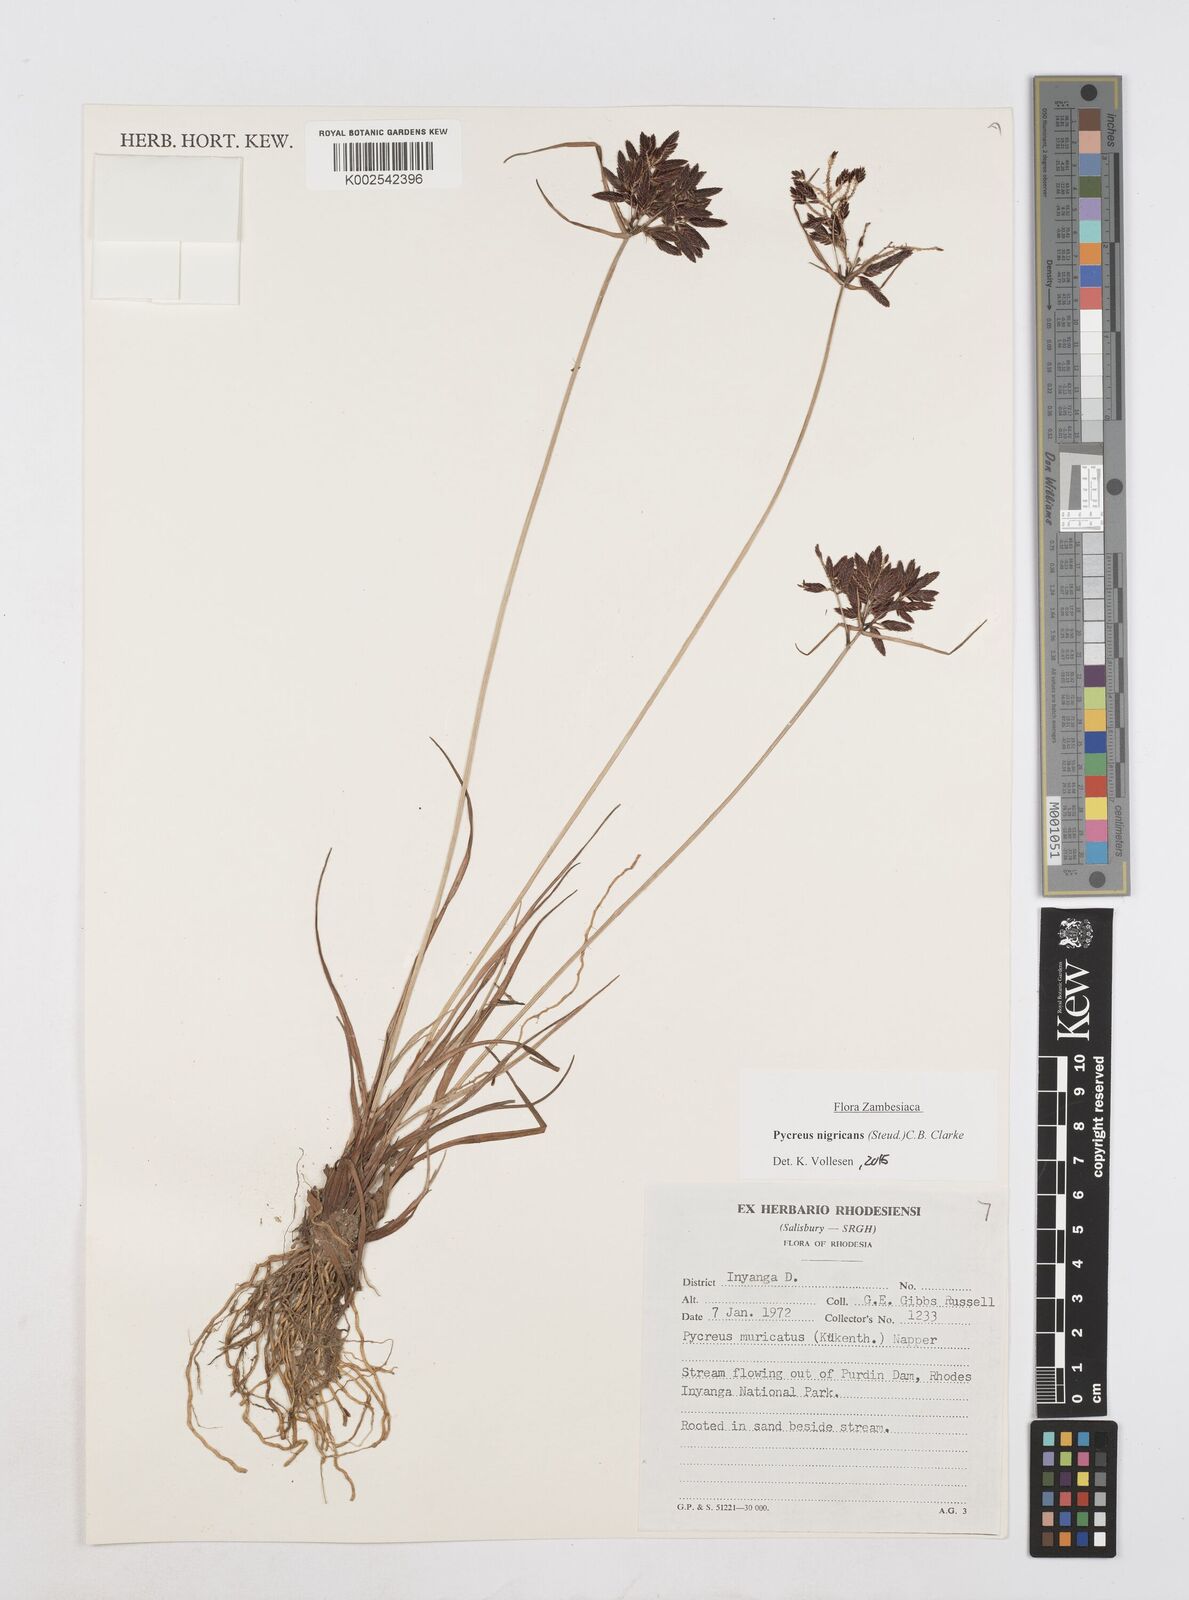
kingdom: Plantae
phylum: Tracheophyta
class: Liliopsida
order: Poales
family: Cyperaceae
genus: Cyperus
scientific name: Cyperus nigricans
